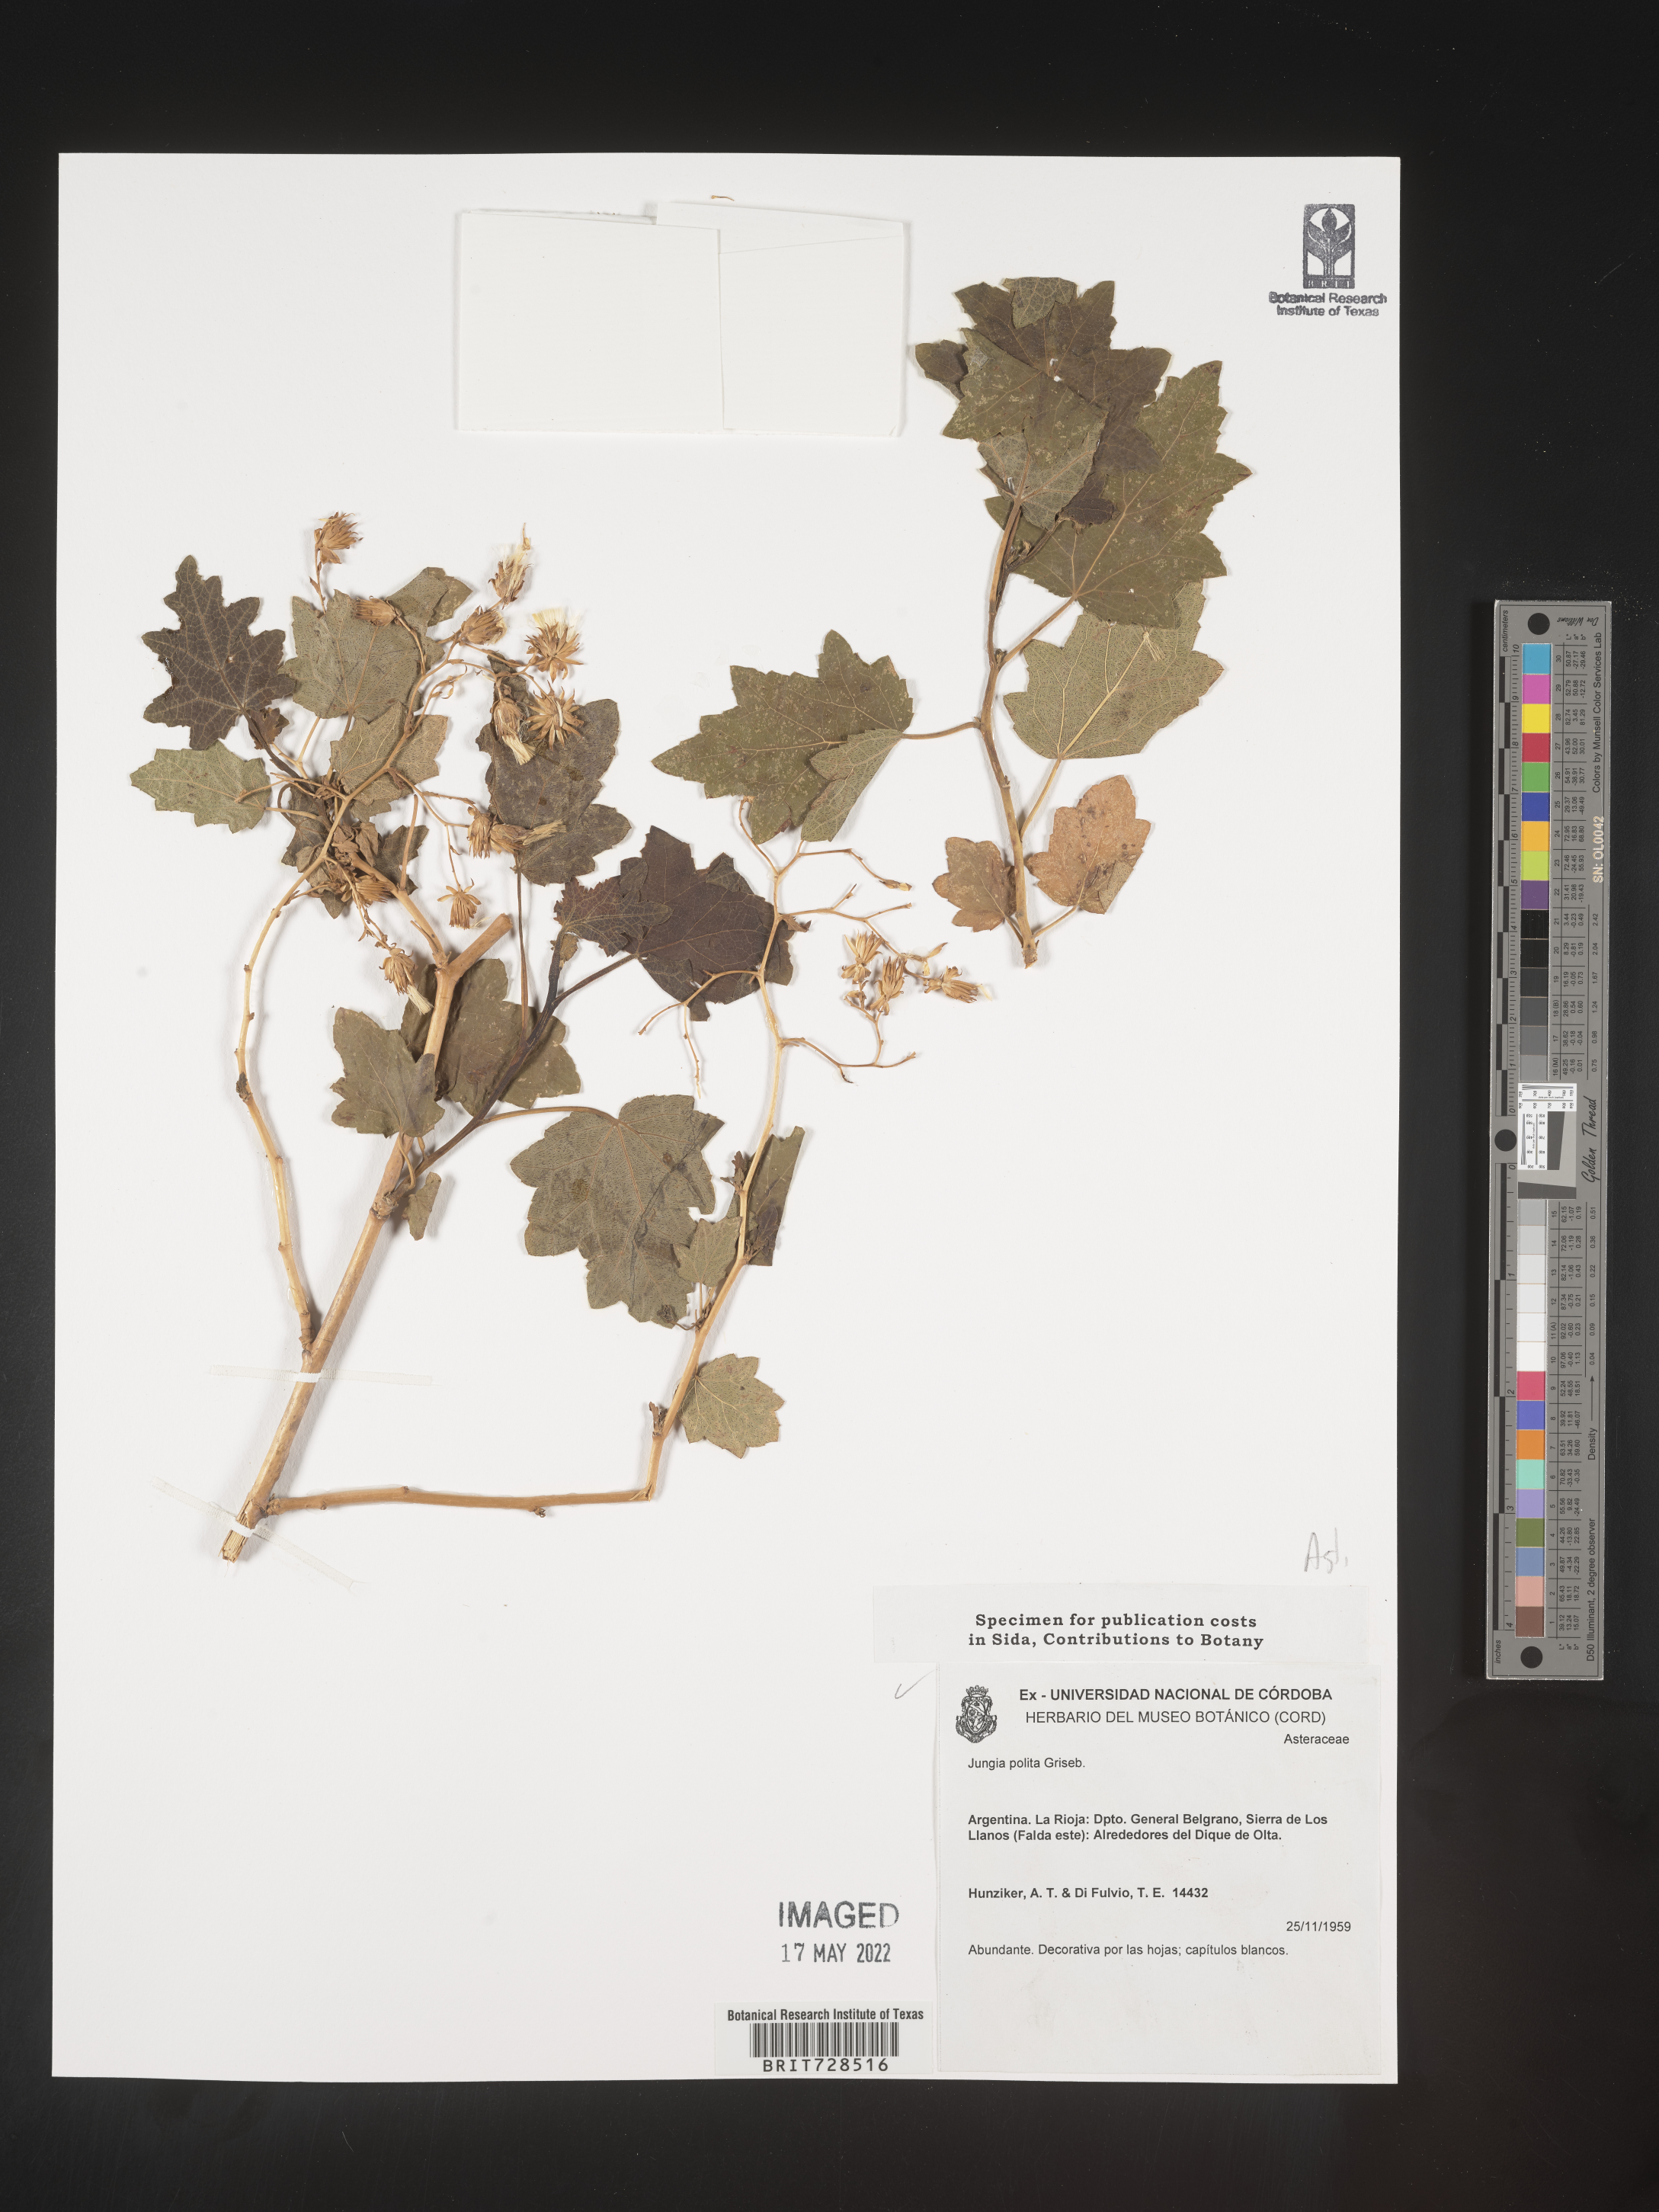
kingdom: Plantae
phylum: Tracheophyta
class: Magnoliopsida
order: Asterales
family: Asteraceae
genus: Jungia
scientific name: Jungia
